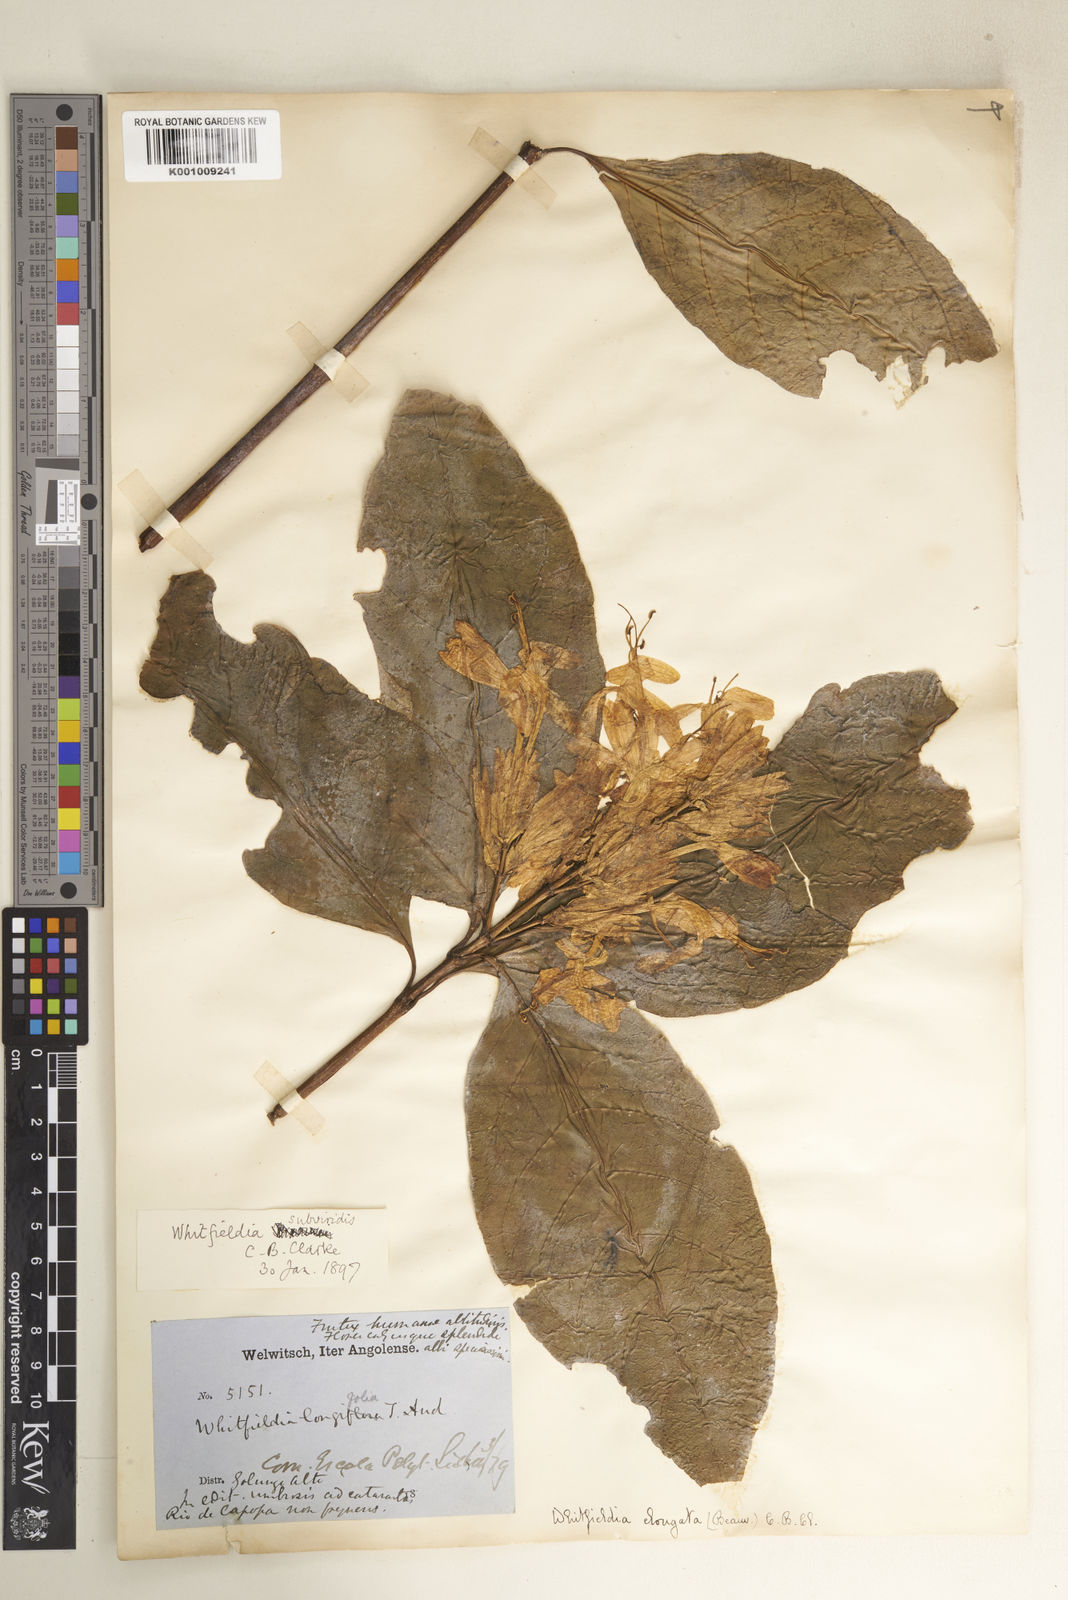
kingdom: Plantae
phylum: Tracheophyta
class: Magnoliopsida
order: Lamiales
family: Acanthaceae
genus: Whitfieldia
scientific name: Whitfieldia elongata
